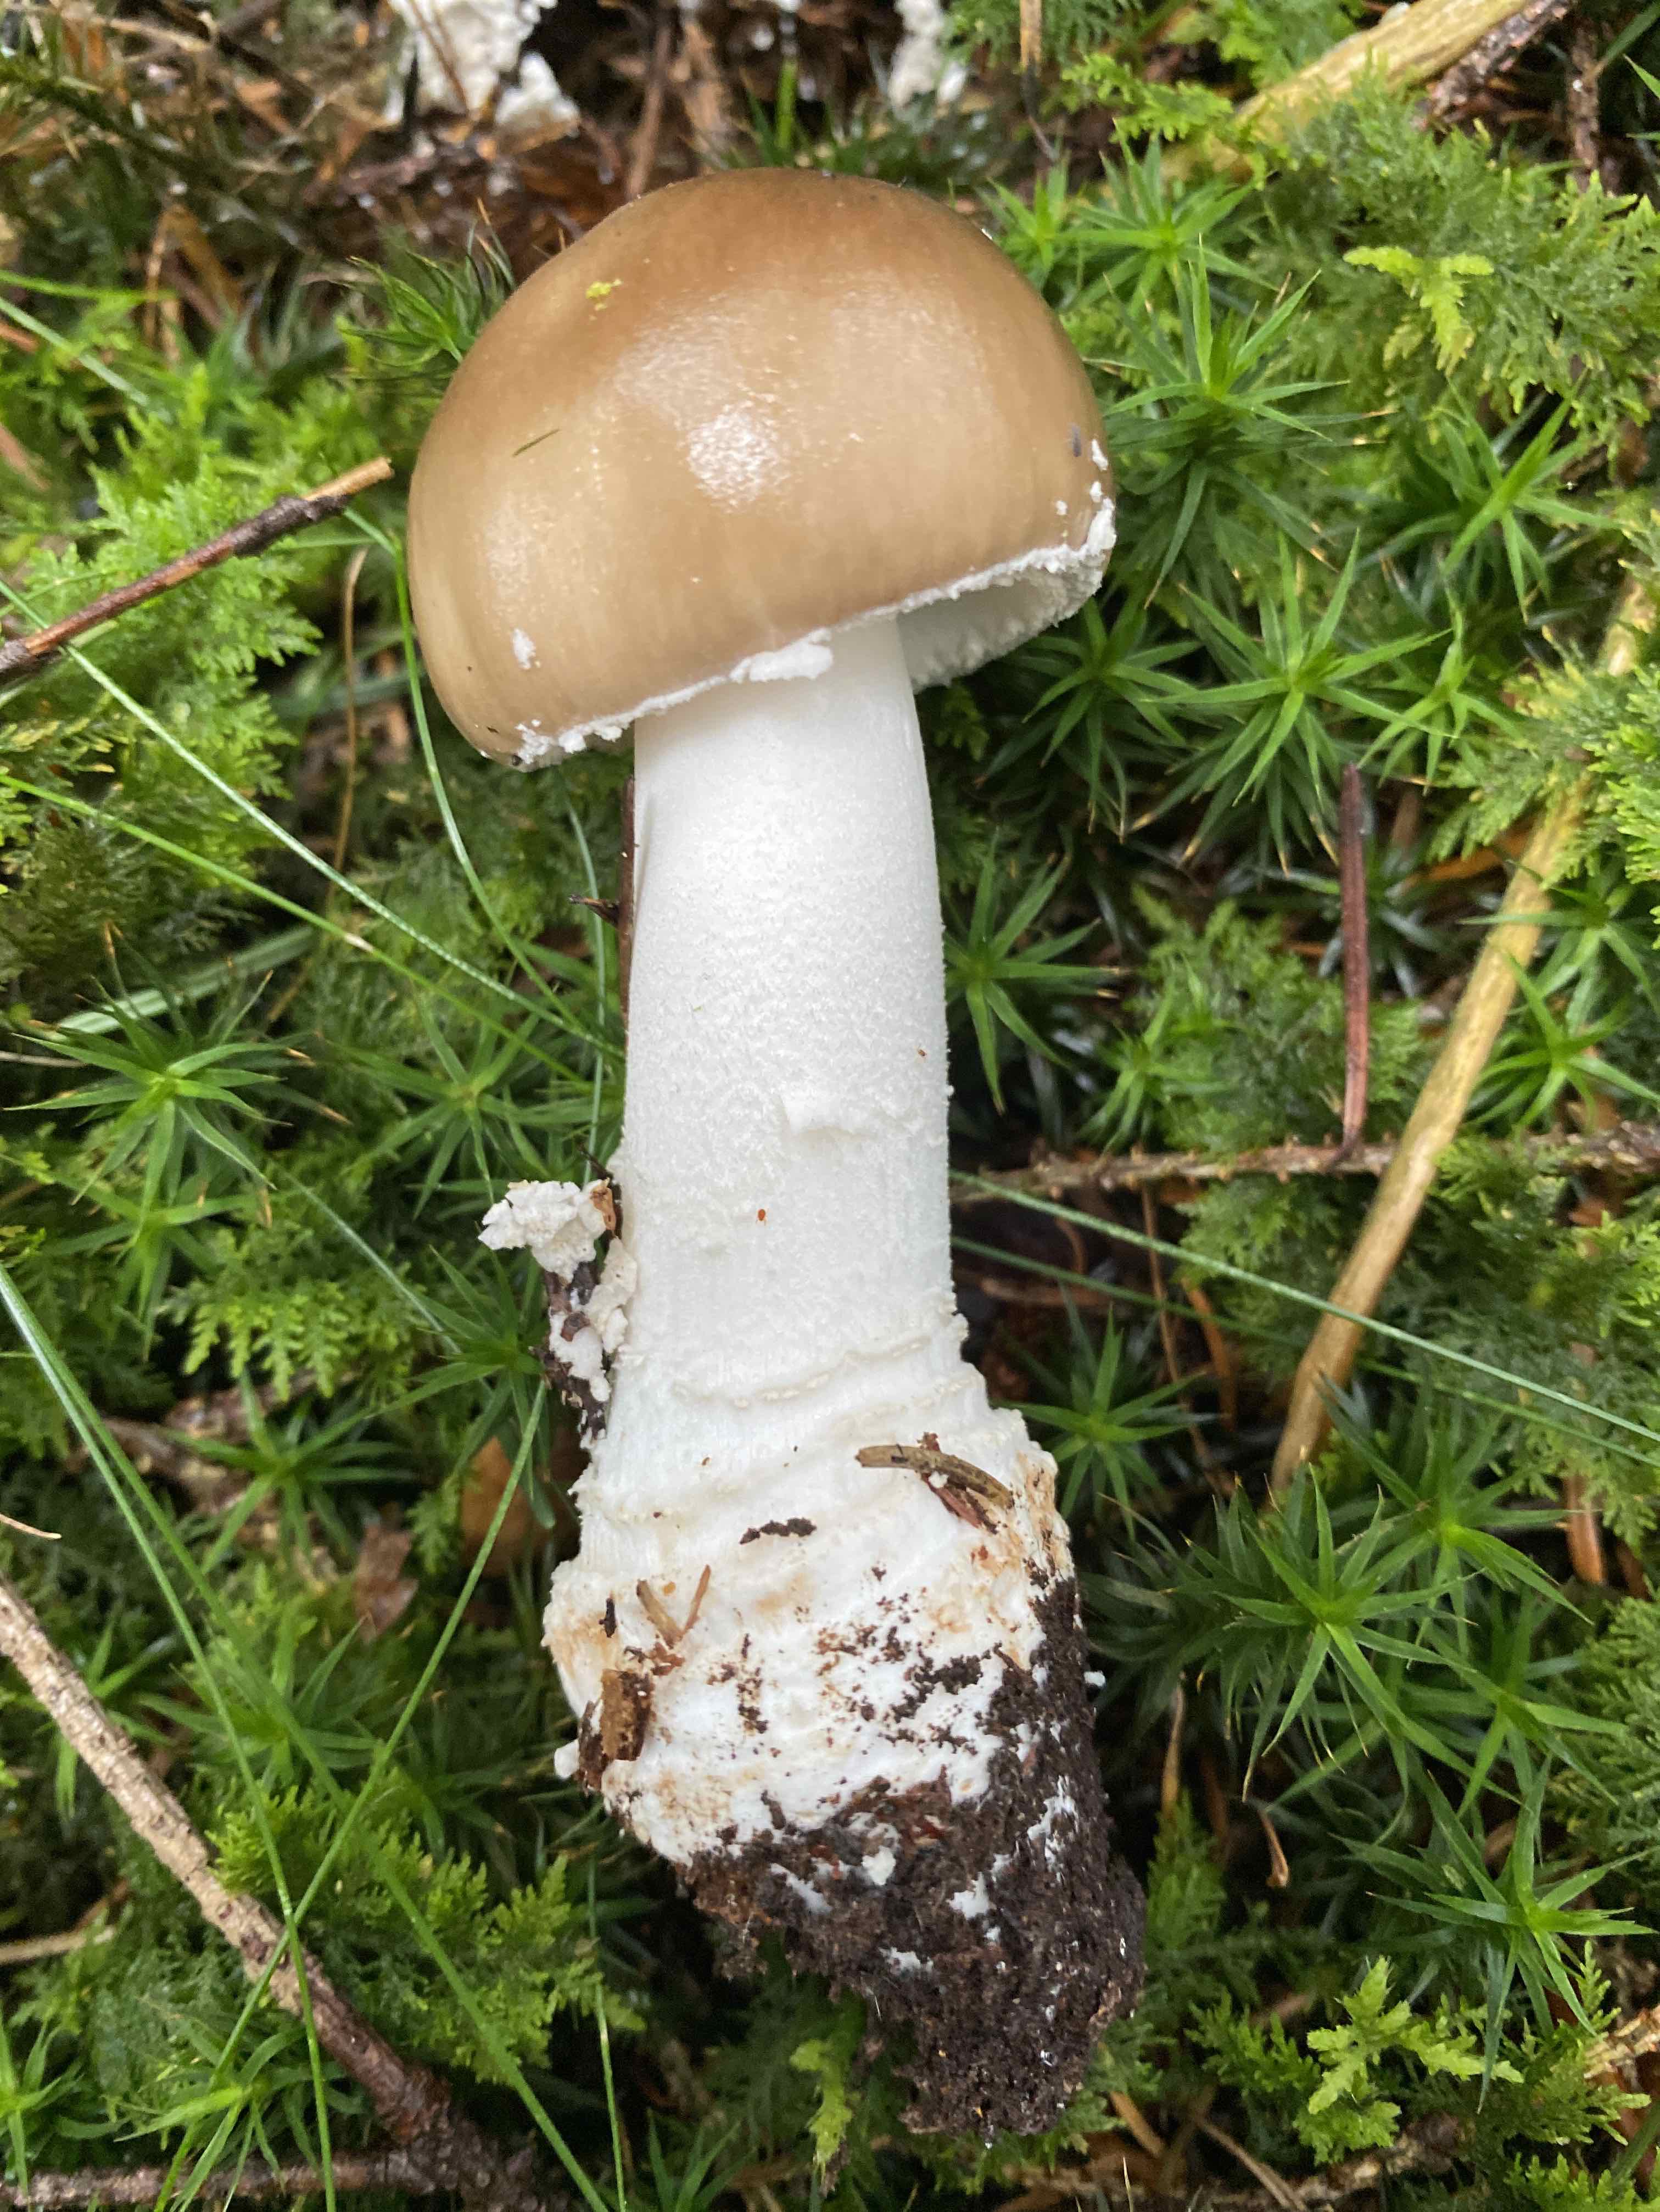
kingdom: Fungi
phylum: Basidiomycota
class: Agaricomycetes
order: Agaricales
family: Amanitaceae
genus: Amanita
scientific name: Amanita
